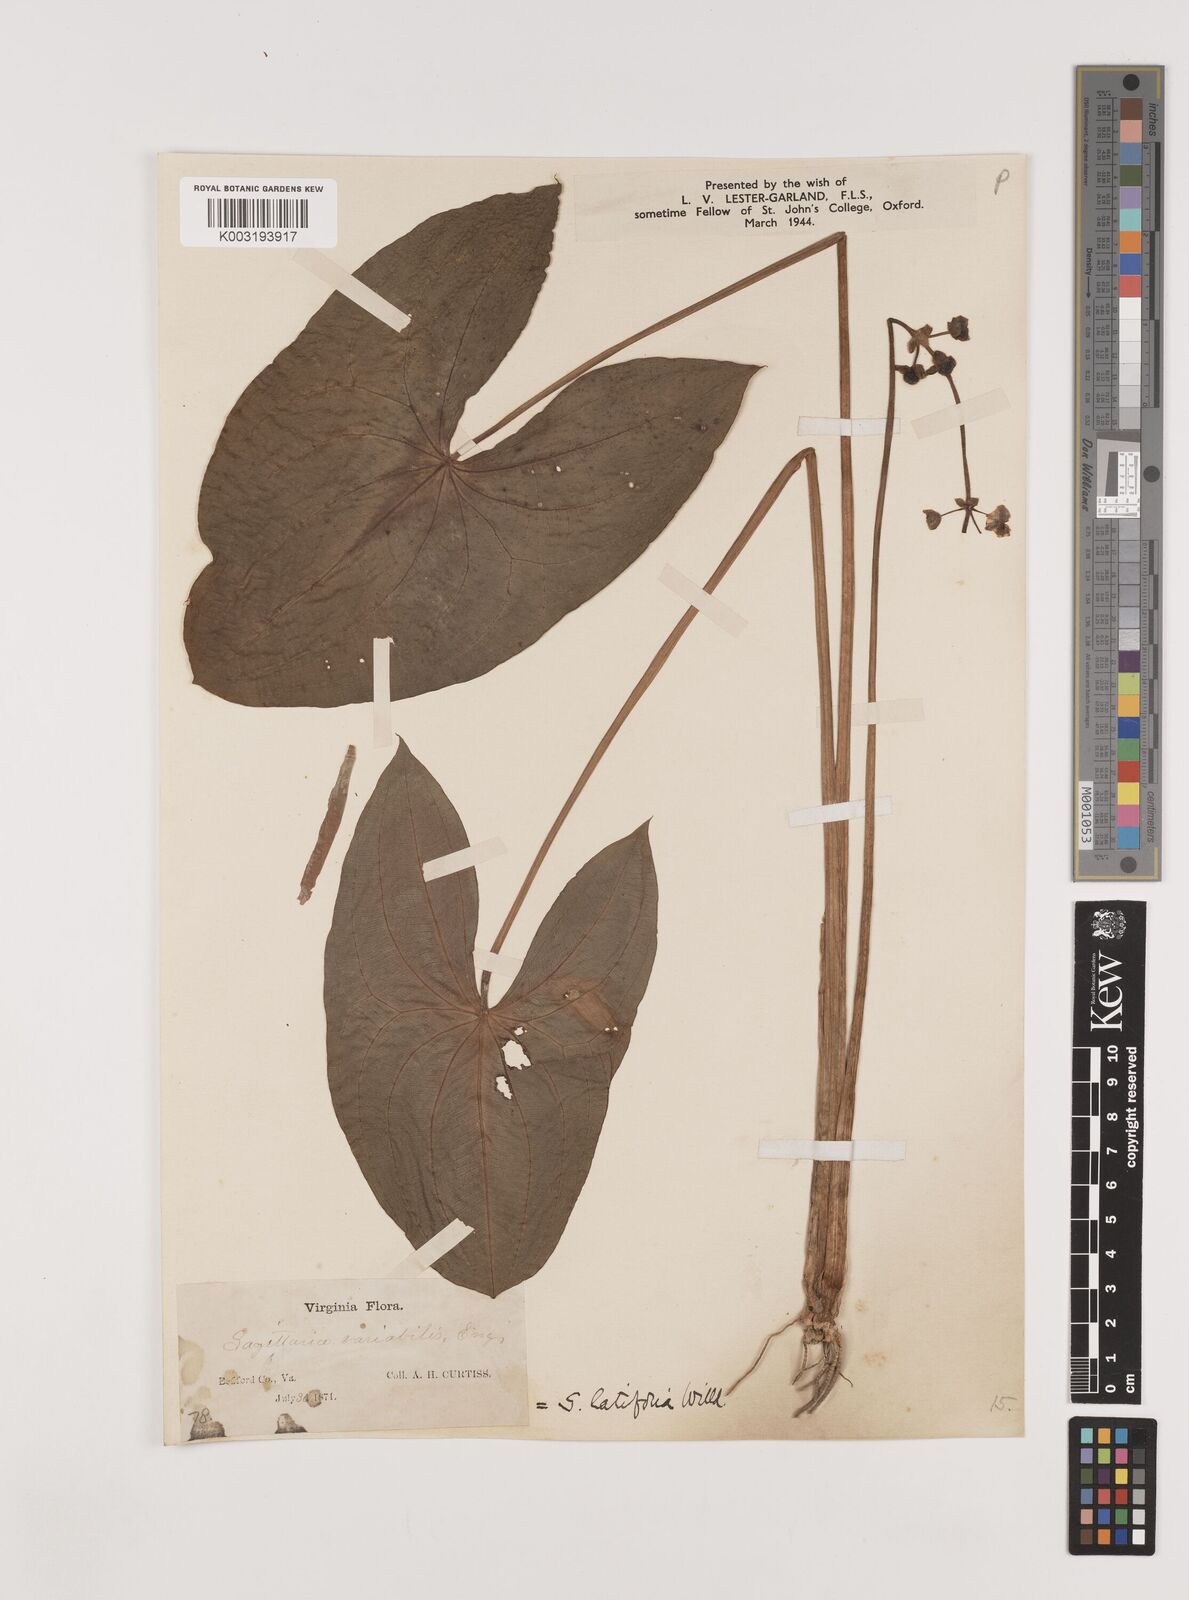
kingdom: Plantae
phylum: Tracheophyta
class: Liliopsida
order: Alismatales
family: Alismataceae
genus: Sagittaria
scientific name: Sagittaria latifolia
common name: Duck-potato
